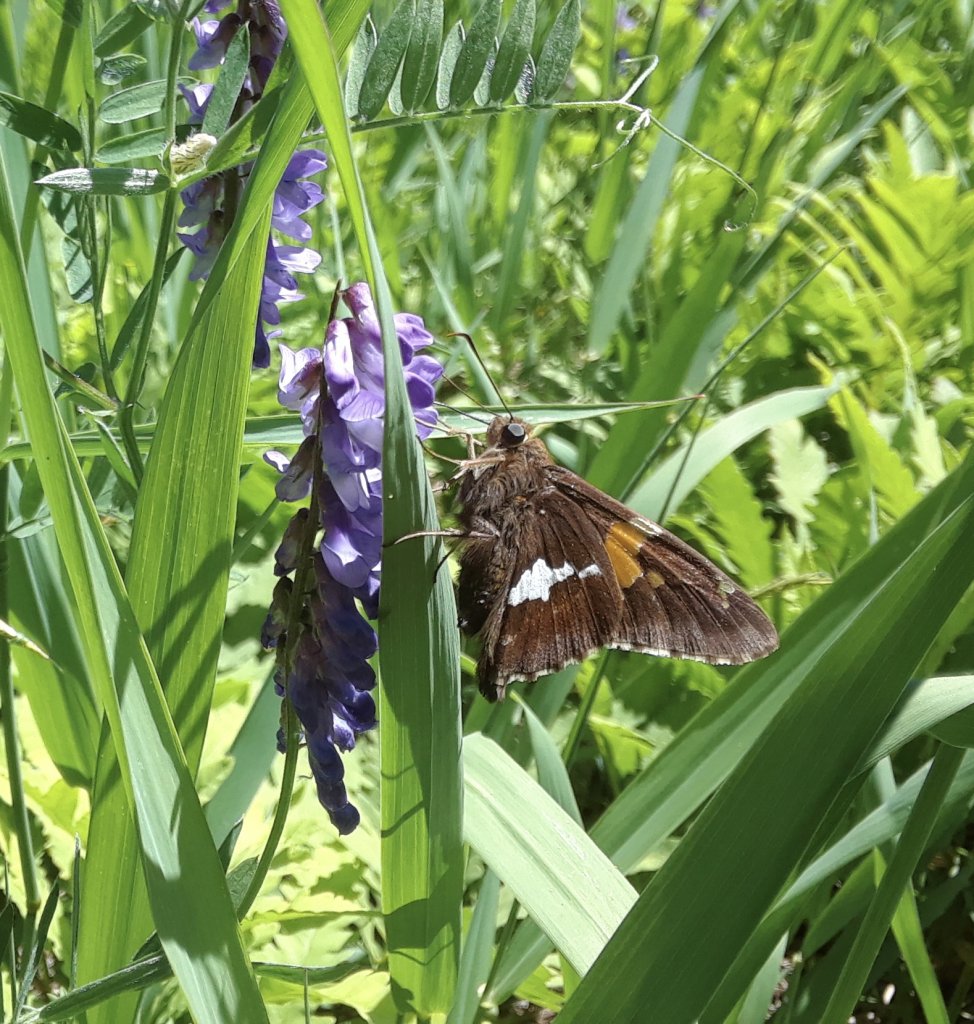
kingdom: Animalia
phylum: Arthropoda
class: Insecta
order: Lepidoptera
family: Hesperiidae
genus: Epargyreus
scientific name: Epargyreus clarus
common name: Silver-spotted Skipper
